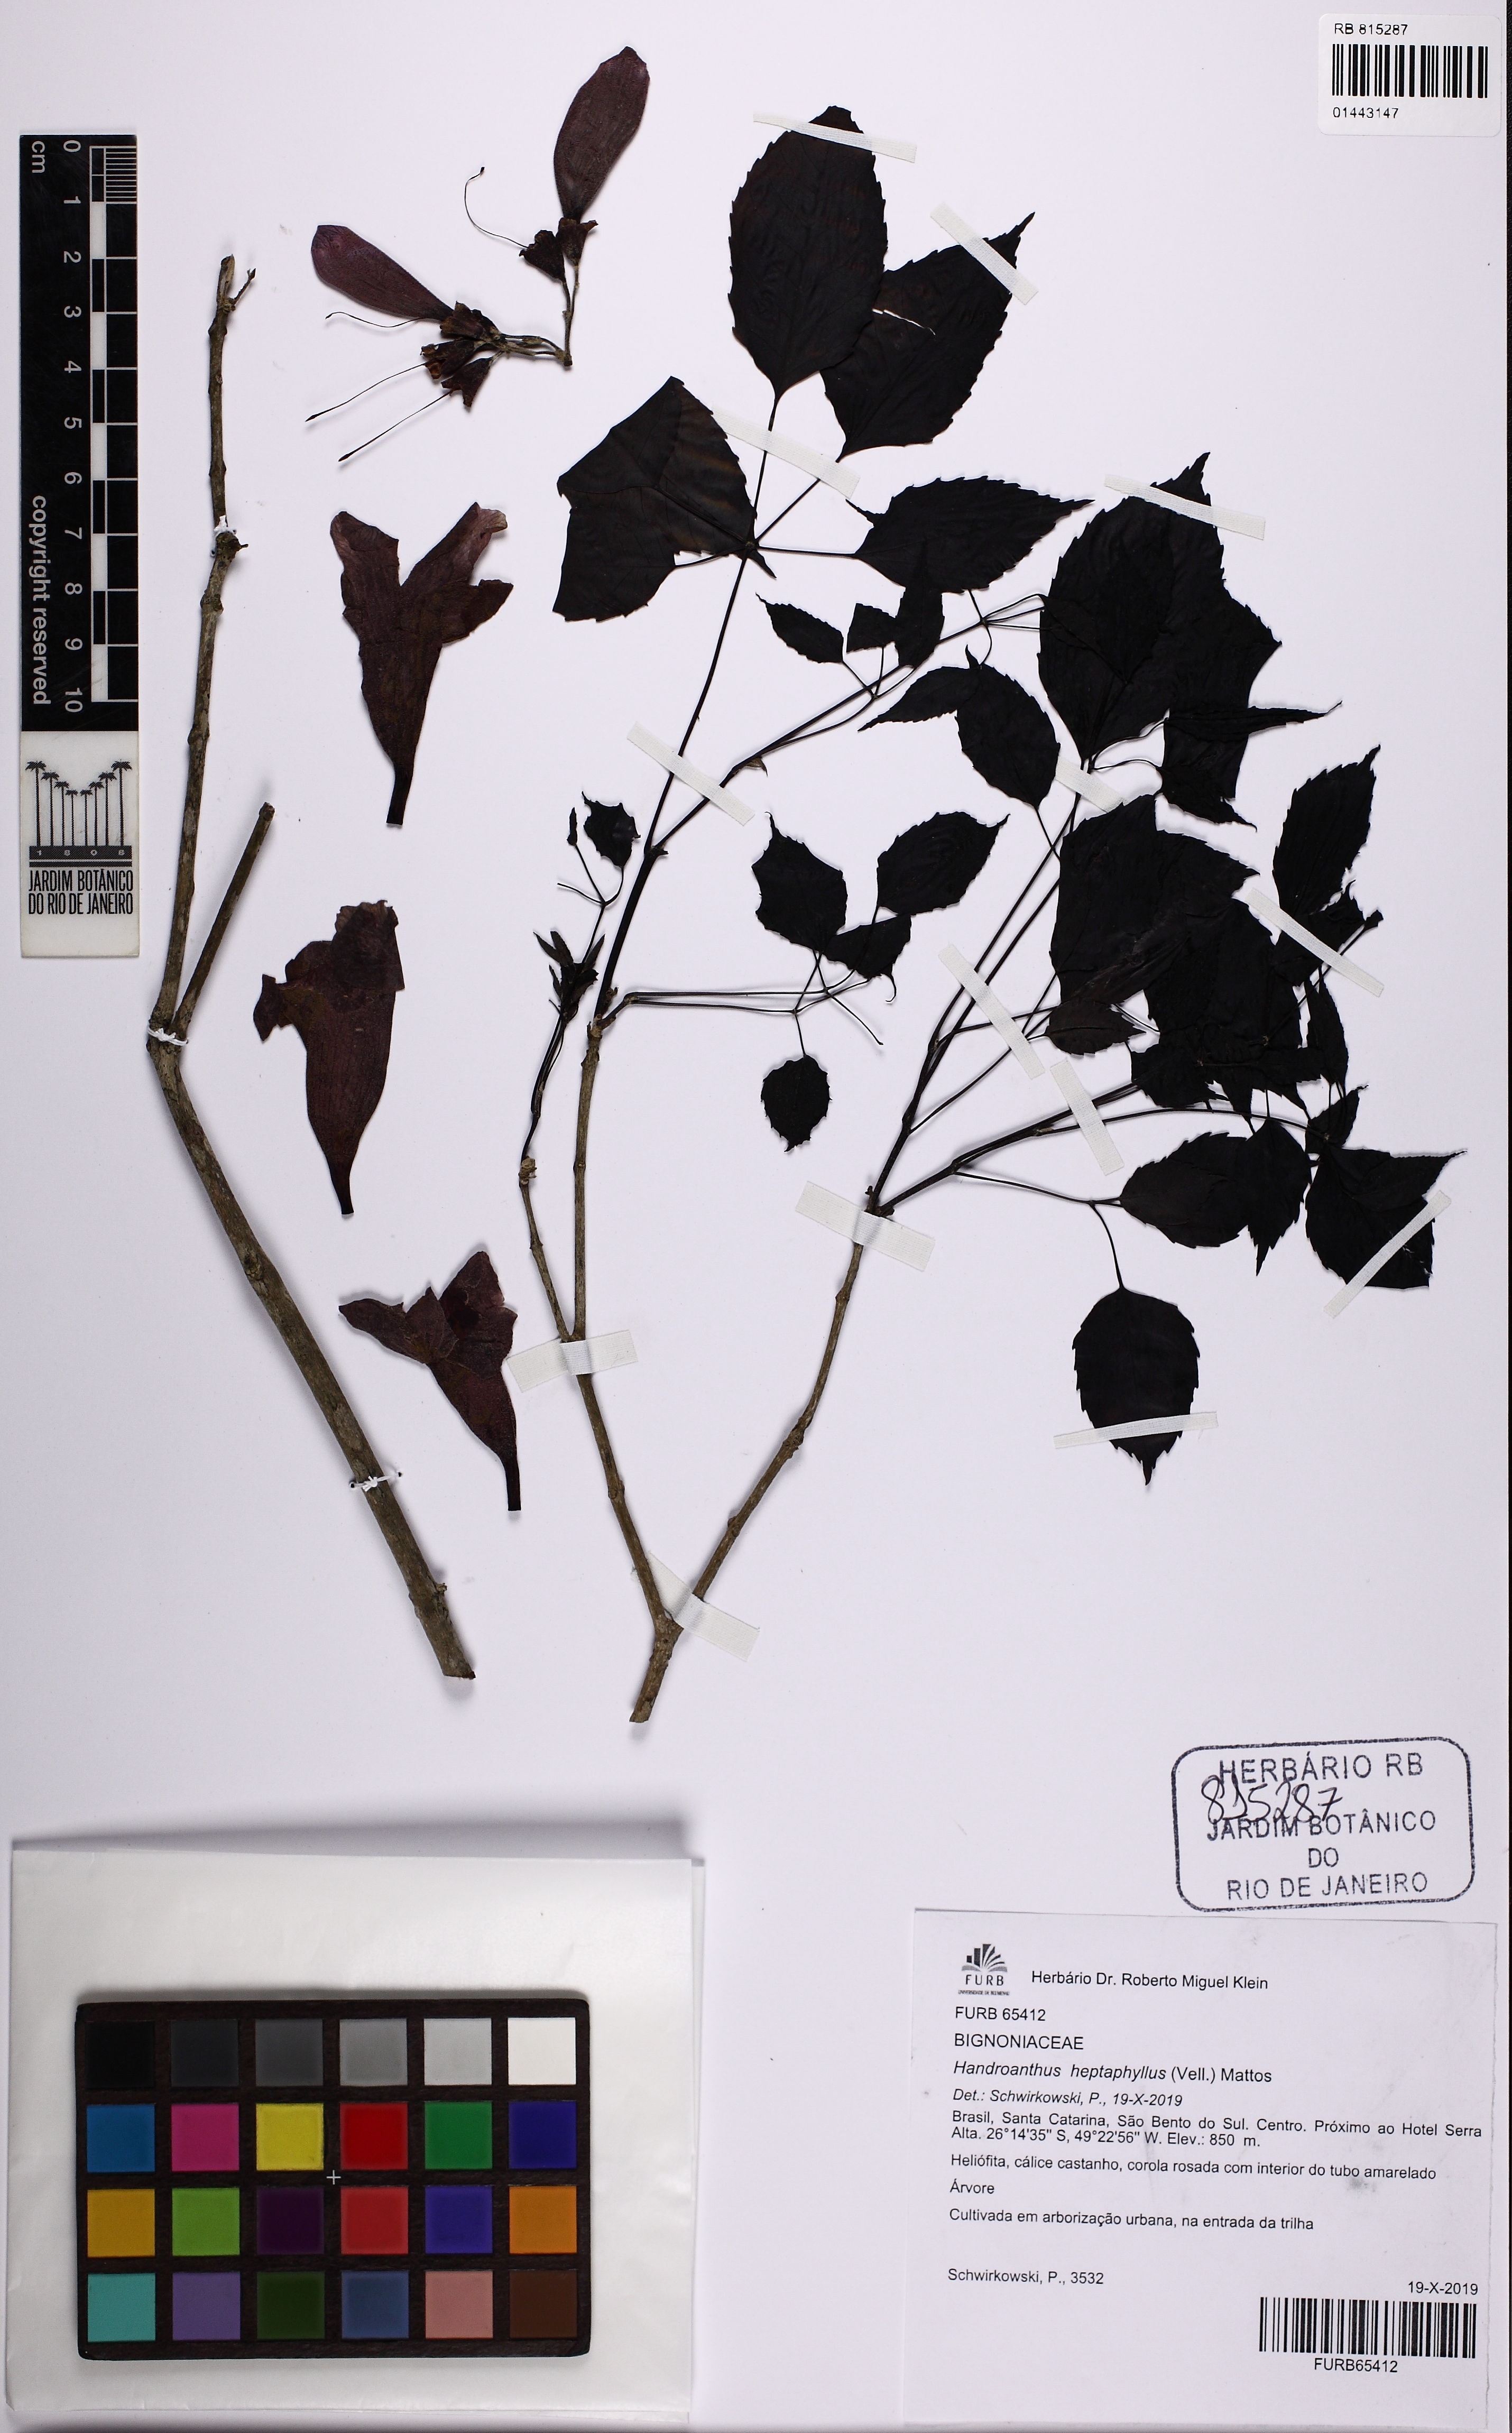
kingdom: Plantae
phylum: Tracheophyta
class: Magnoliopsida
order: Lamiales
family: Bignoniaceae
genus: Handroanthus
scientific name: Handroanthus heptaphyllus
